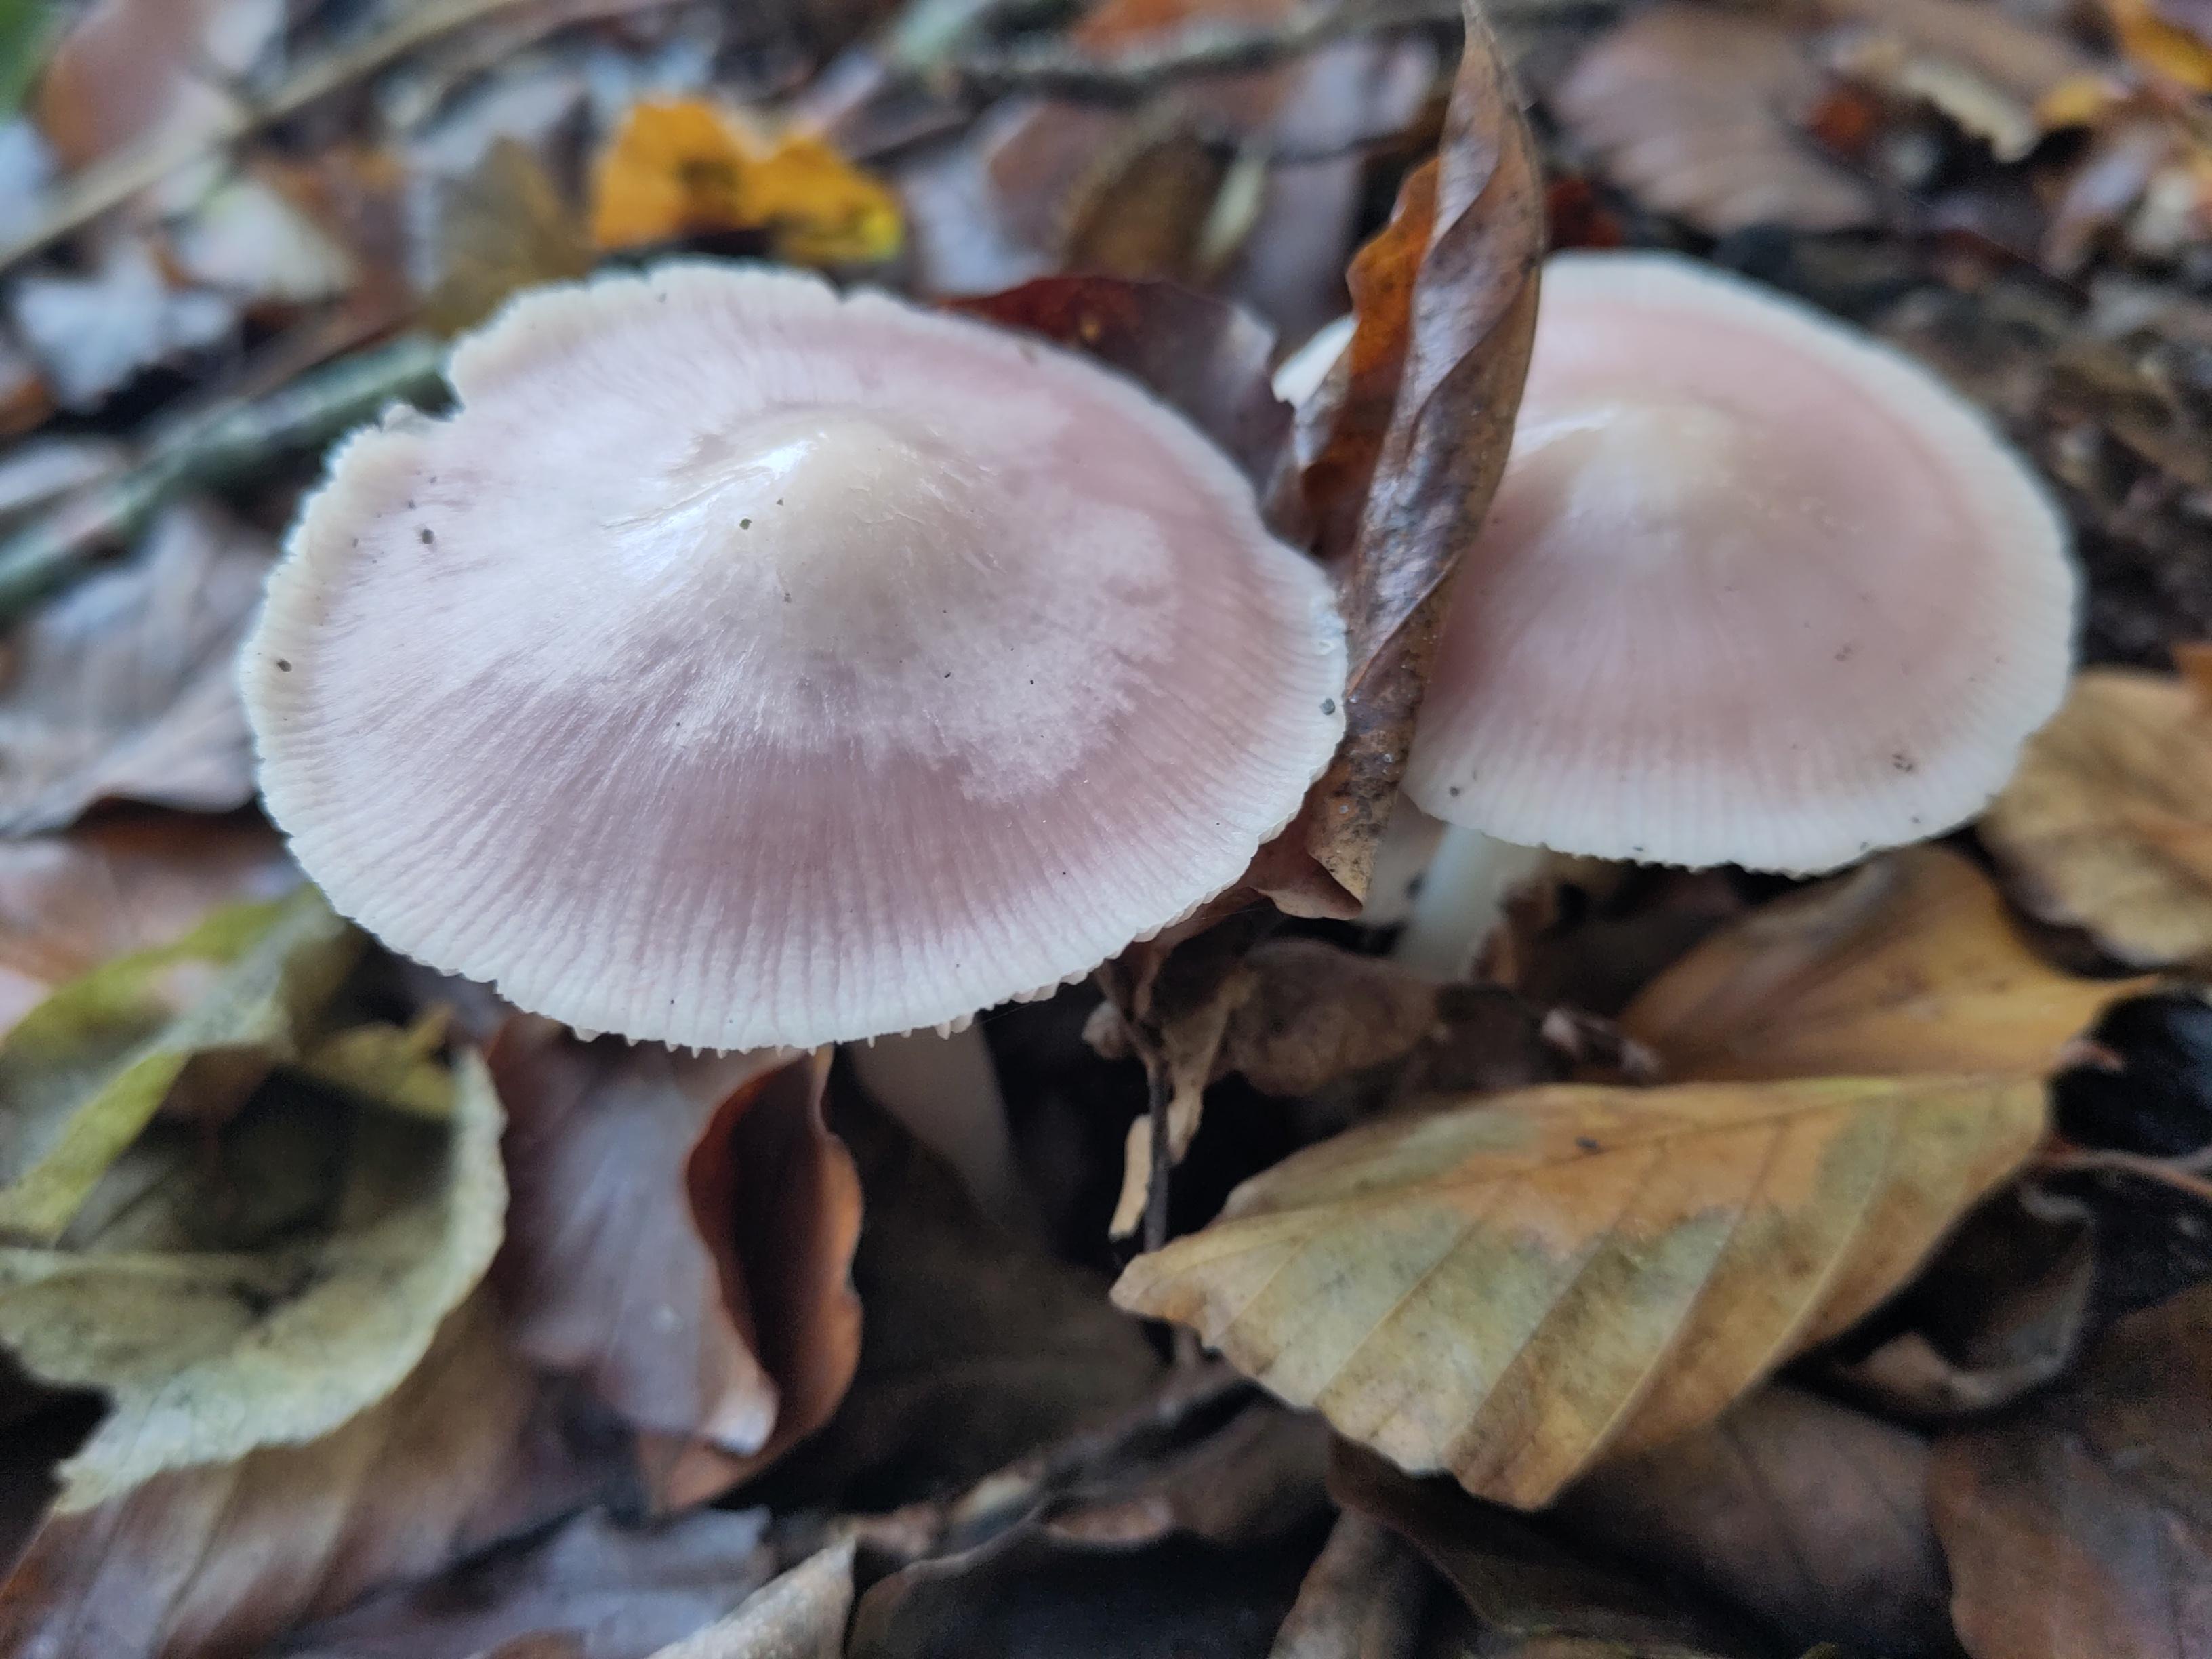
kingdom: Fungi
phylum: Basidiomycota
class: Agaricomycetes
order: Agaricales
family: Mycenaceae
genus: Mycena
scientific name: Mycena rosea
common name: rosa huesvamp
